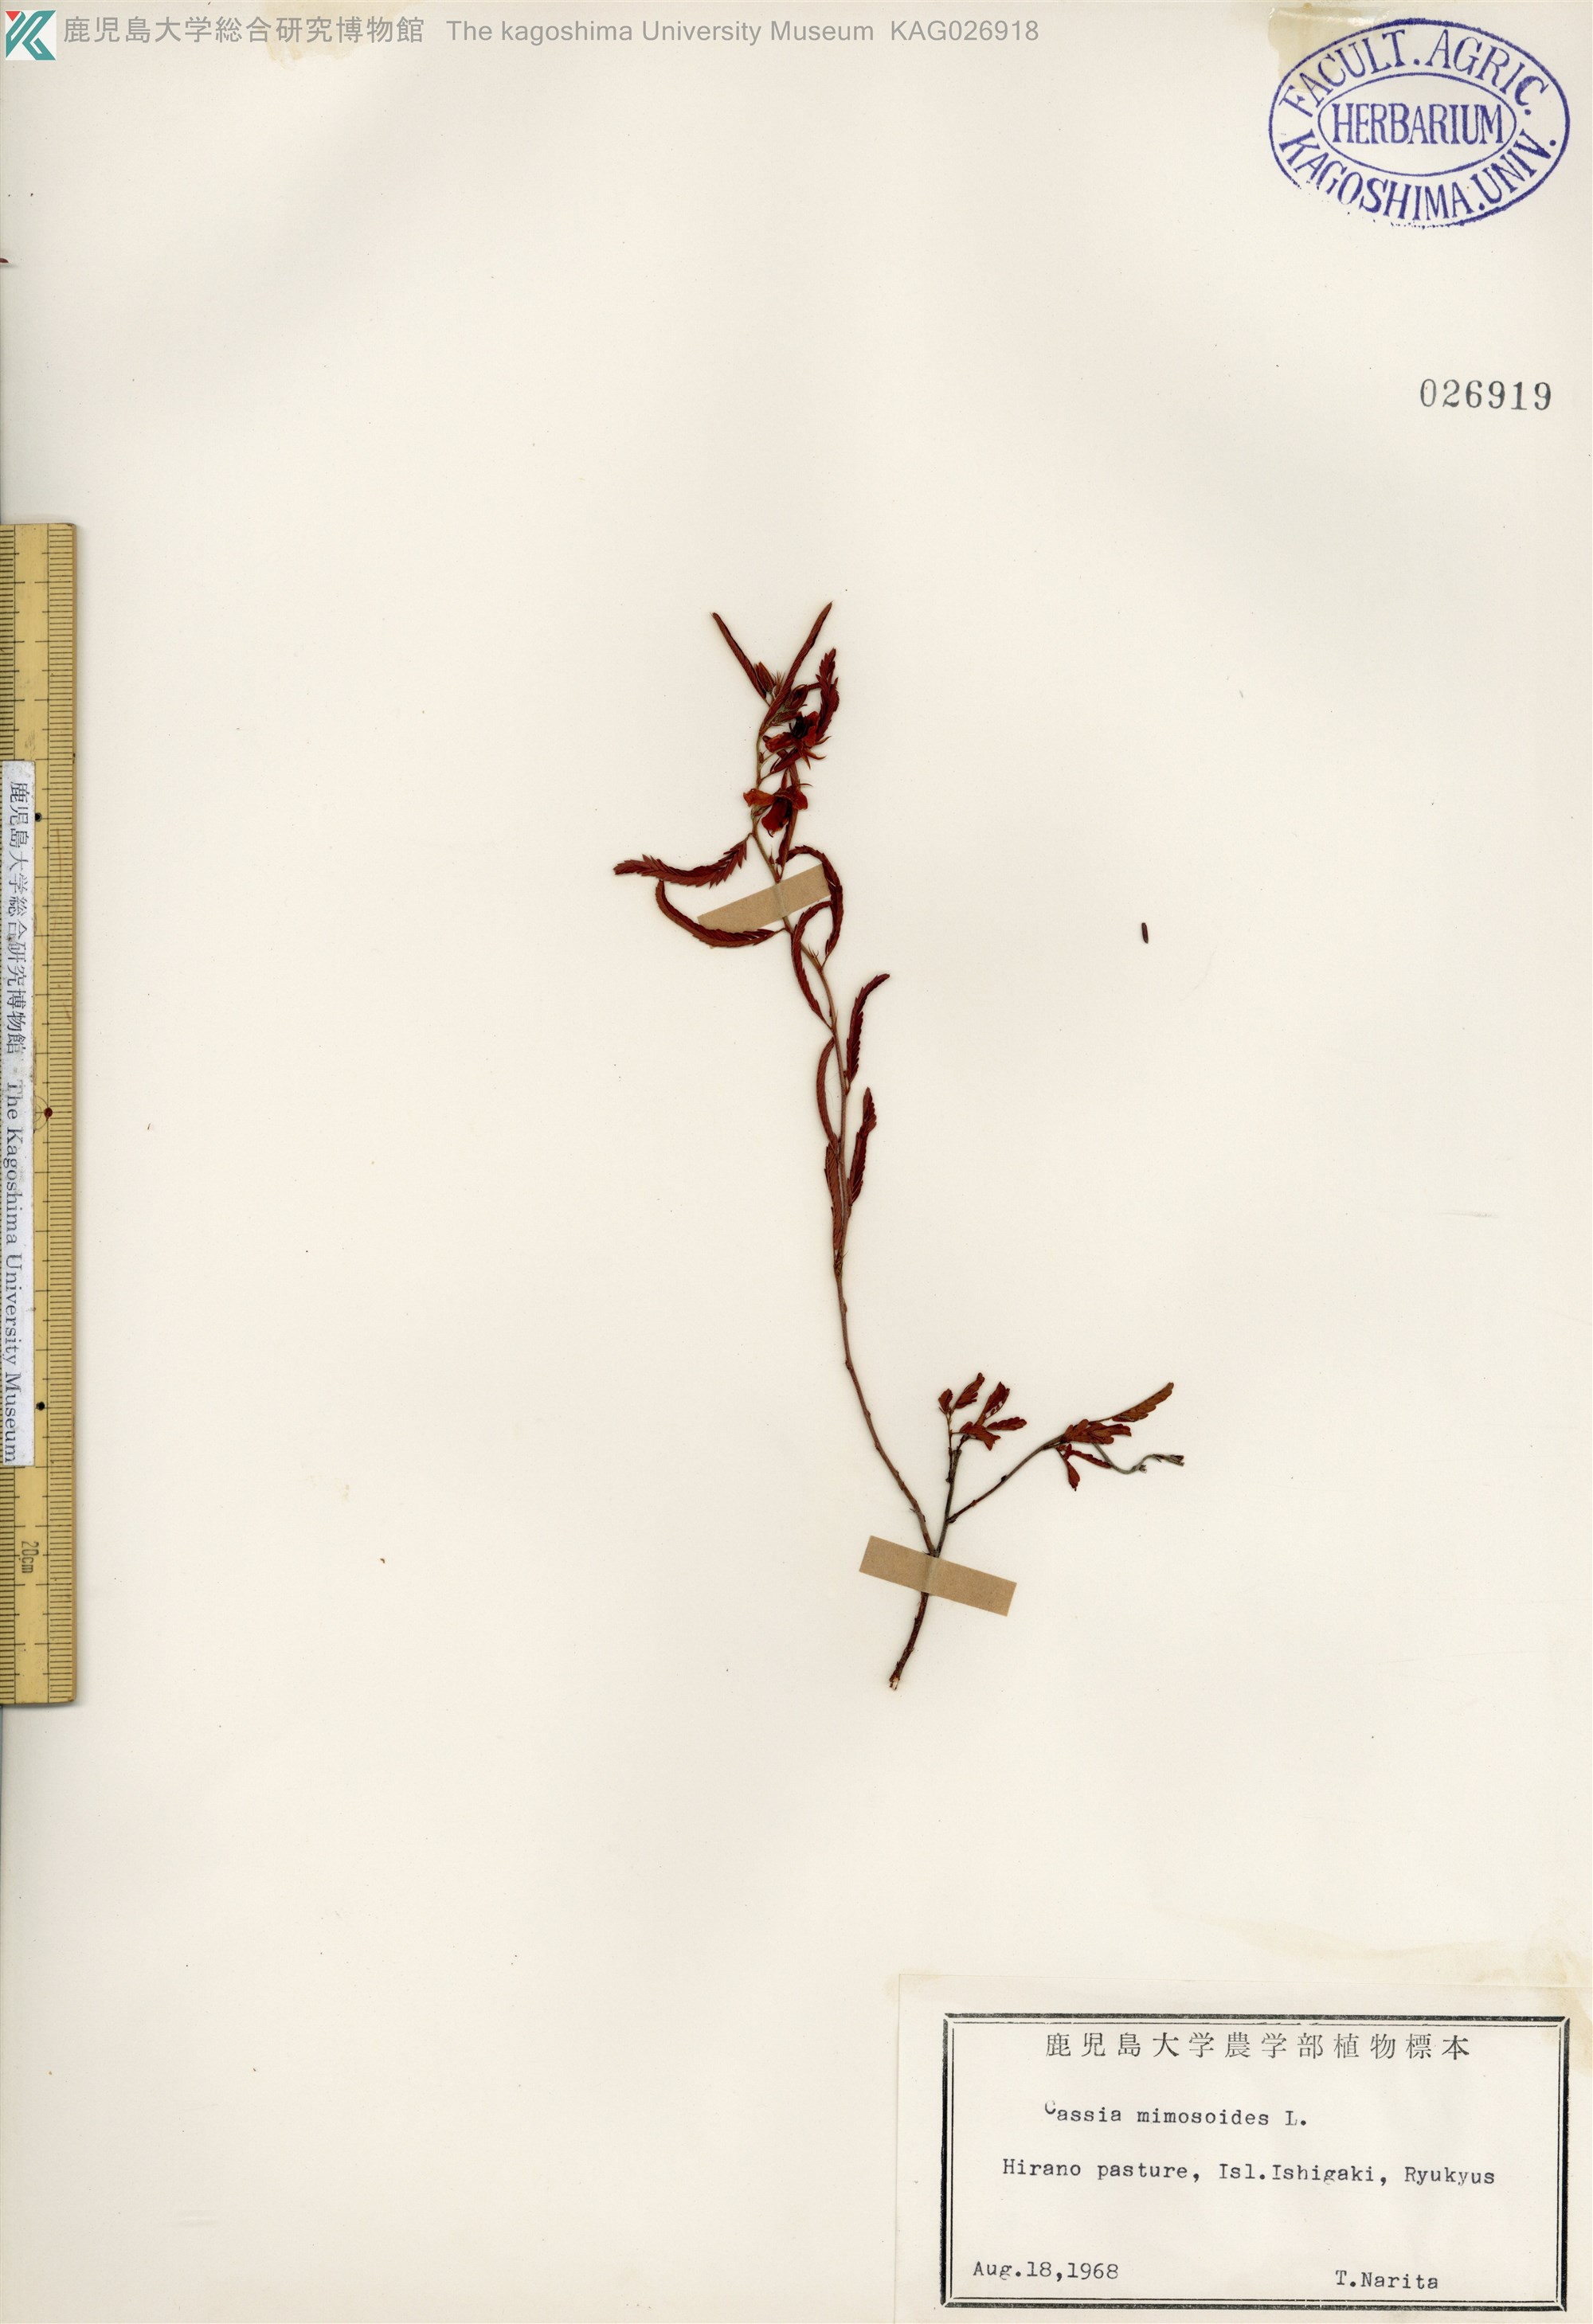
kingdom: Plantae
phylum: Tracheophyta
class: Magnoliopsida
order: Fabales
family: Fabaceae
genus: Chamaecrista
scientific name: Chamaecrista nomame
